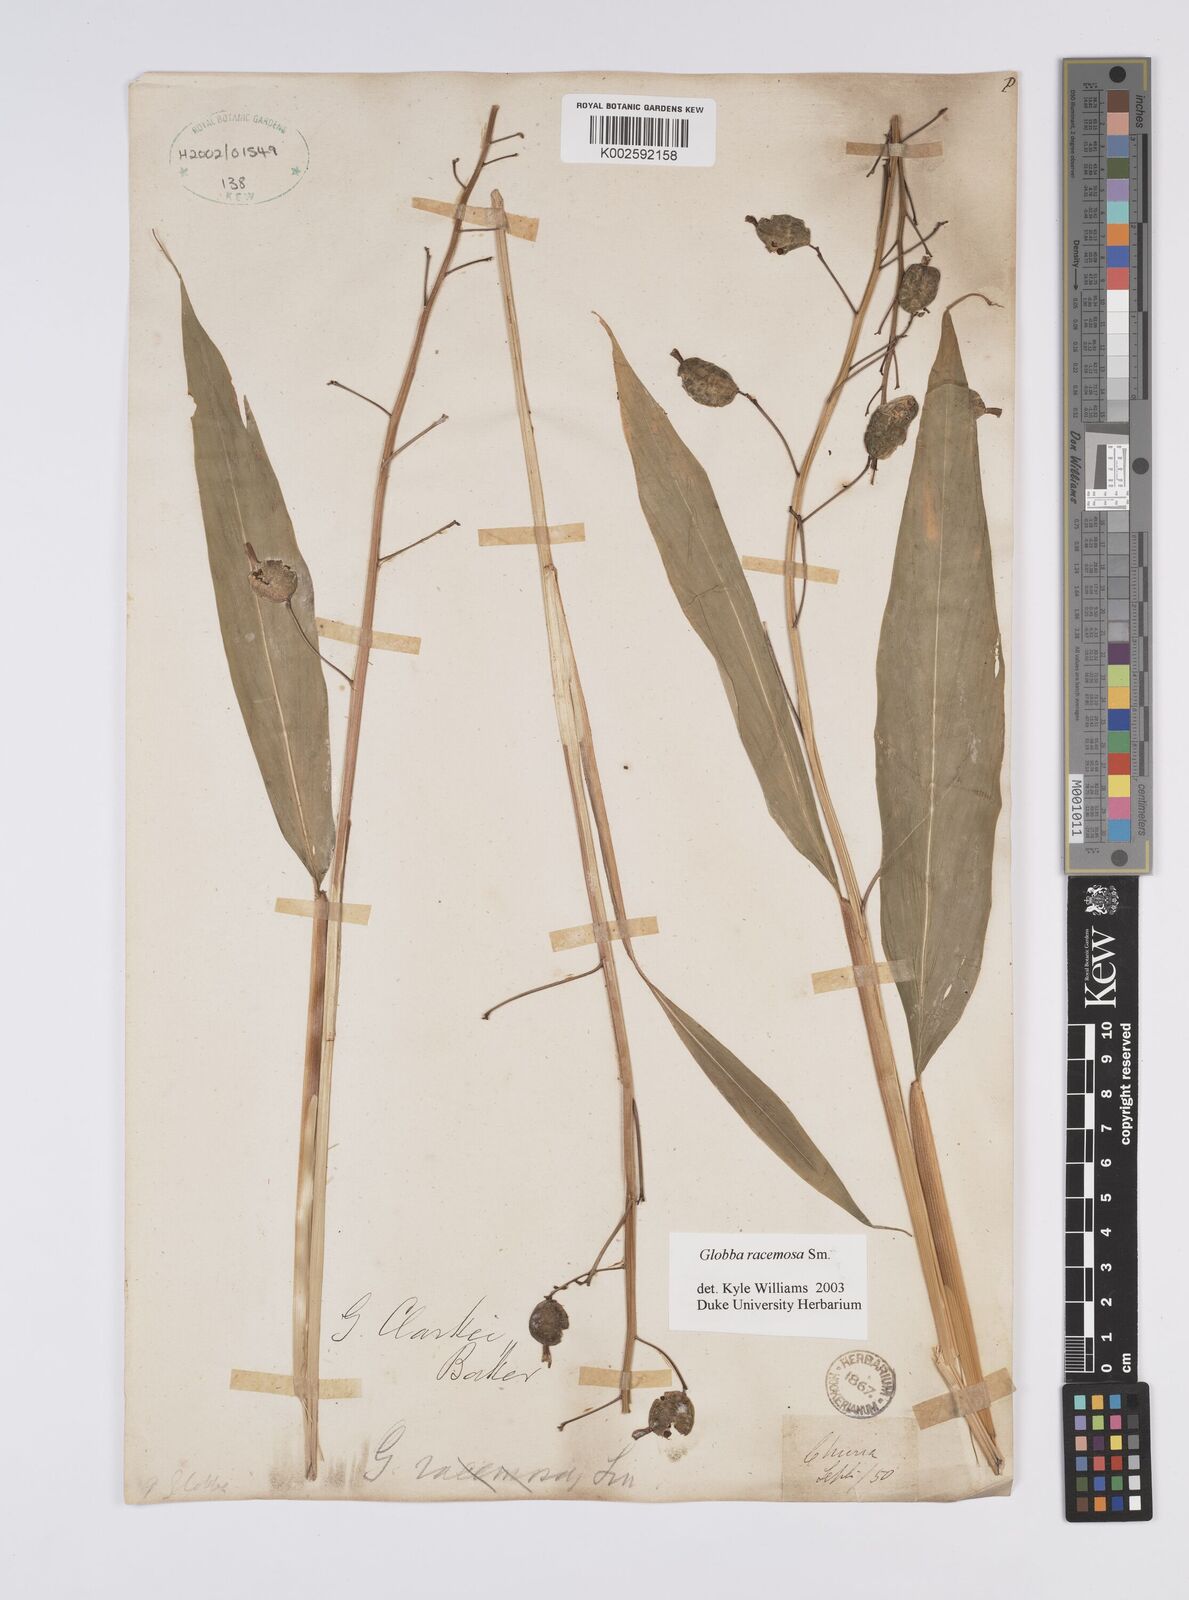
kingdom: Plantae
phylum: Tracheophyta
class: Liliopsida
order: Zingiberales
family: Zingiberaceae
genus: Globba
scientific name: Globba racemosa
